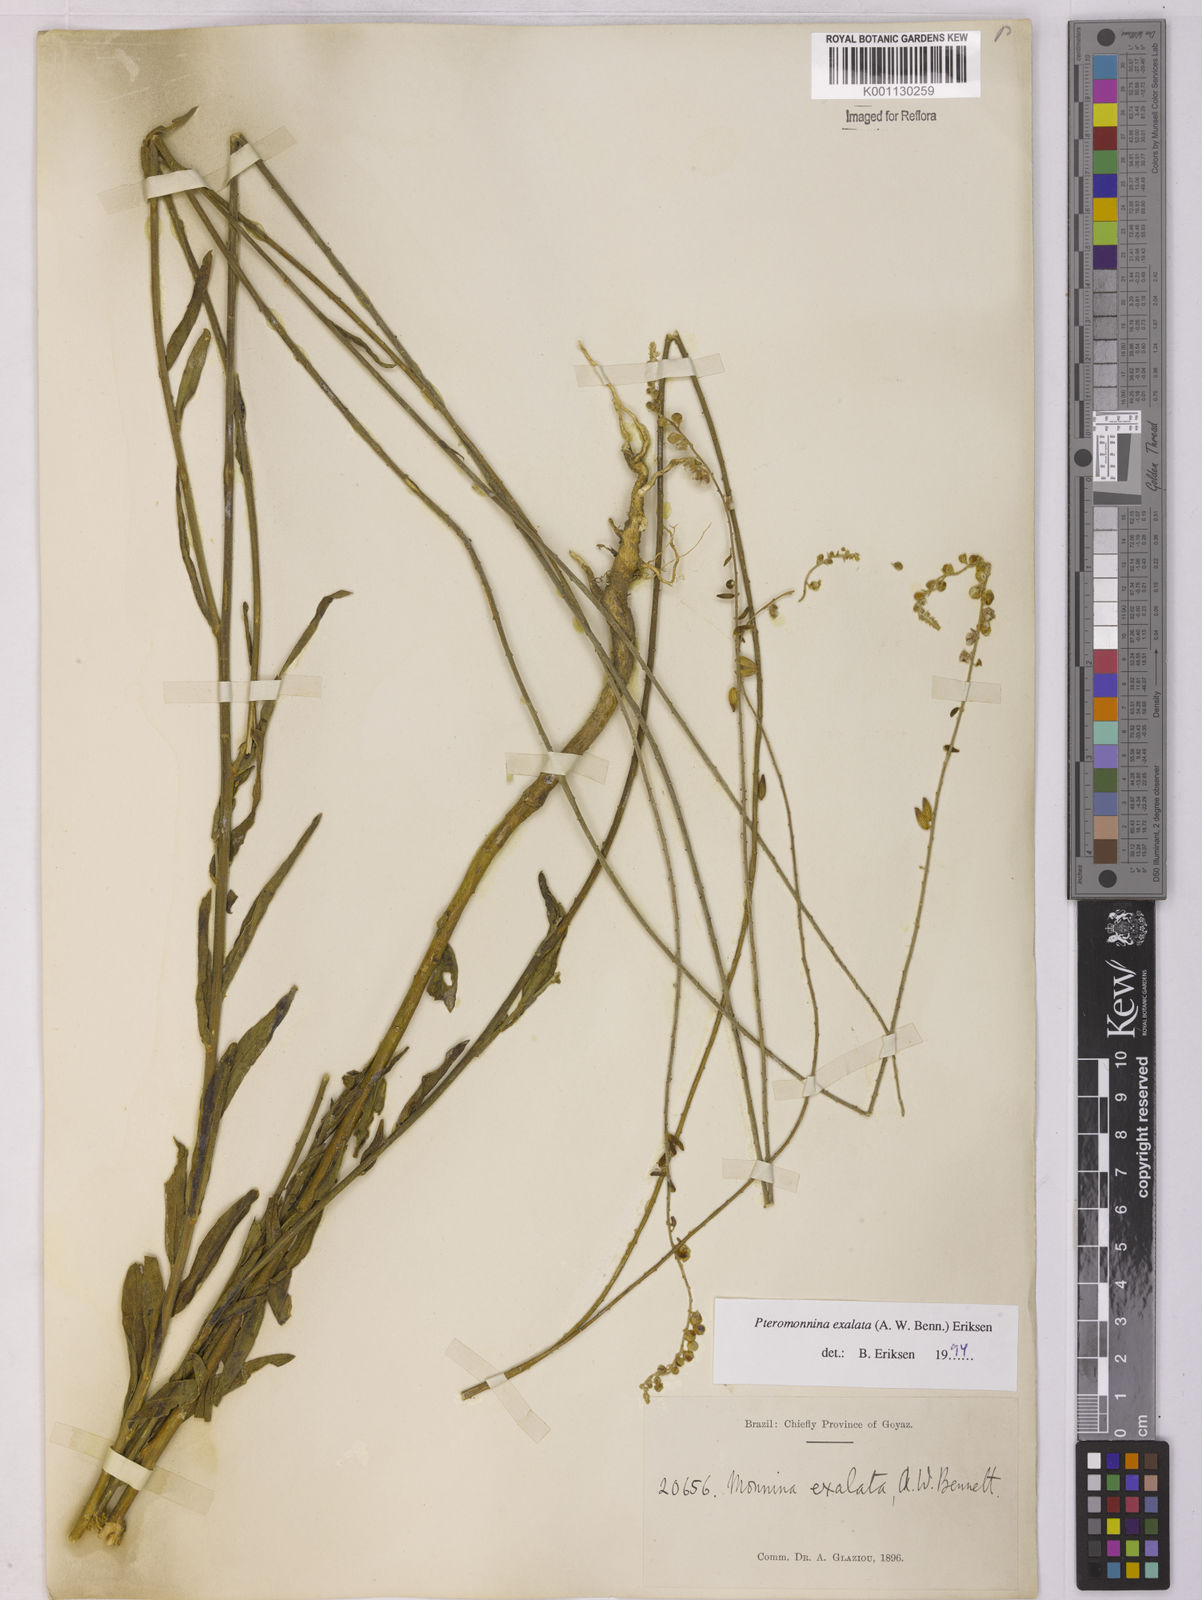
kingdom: Plantae
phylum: Tracheophyta
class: Magnoliopsida
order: Fabales
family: Polygalaceae
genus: Monnina
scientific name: Monnina exalata
